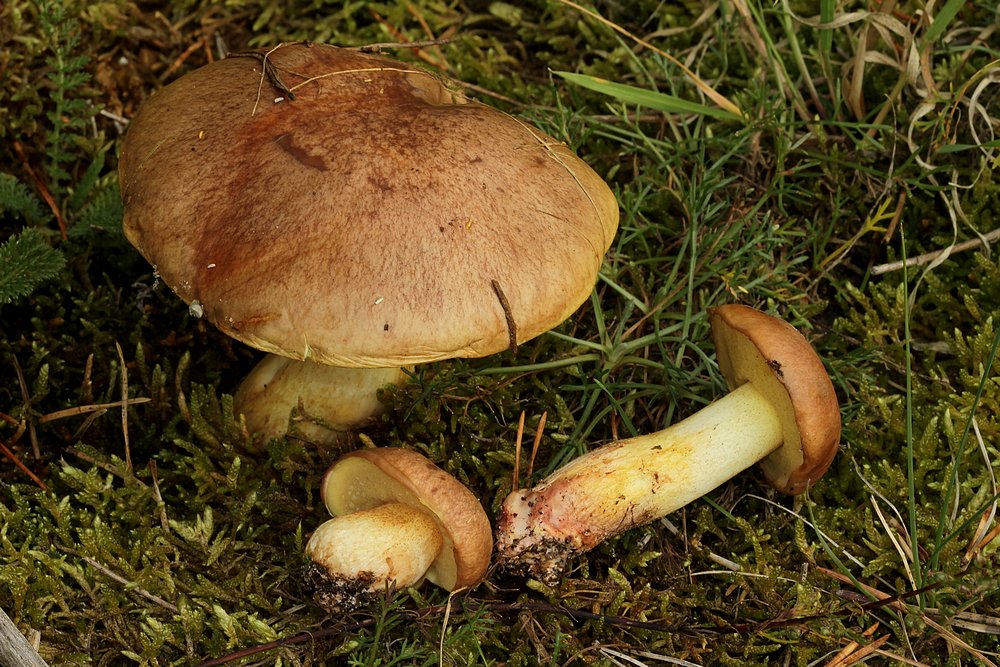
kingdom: Fungi
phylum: Basidiomycota
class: Agaricomycetes
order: Boletales
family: Suillaceae
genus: Suillus
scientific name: Suillus collinitus
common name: rosafodet slimrørhat
